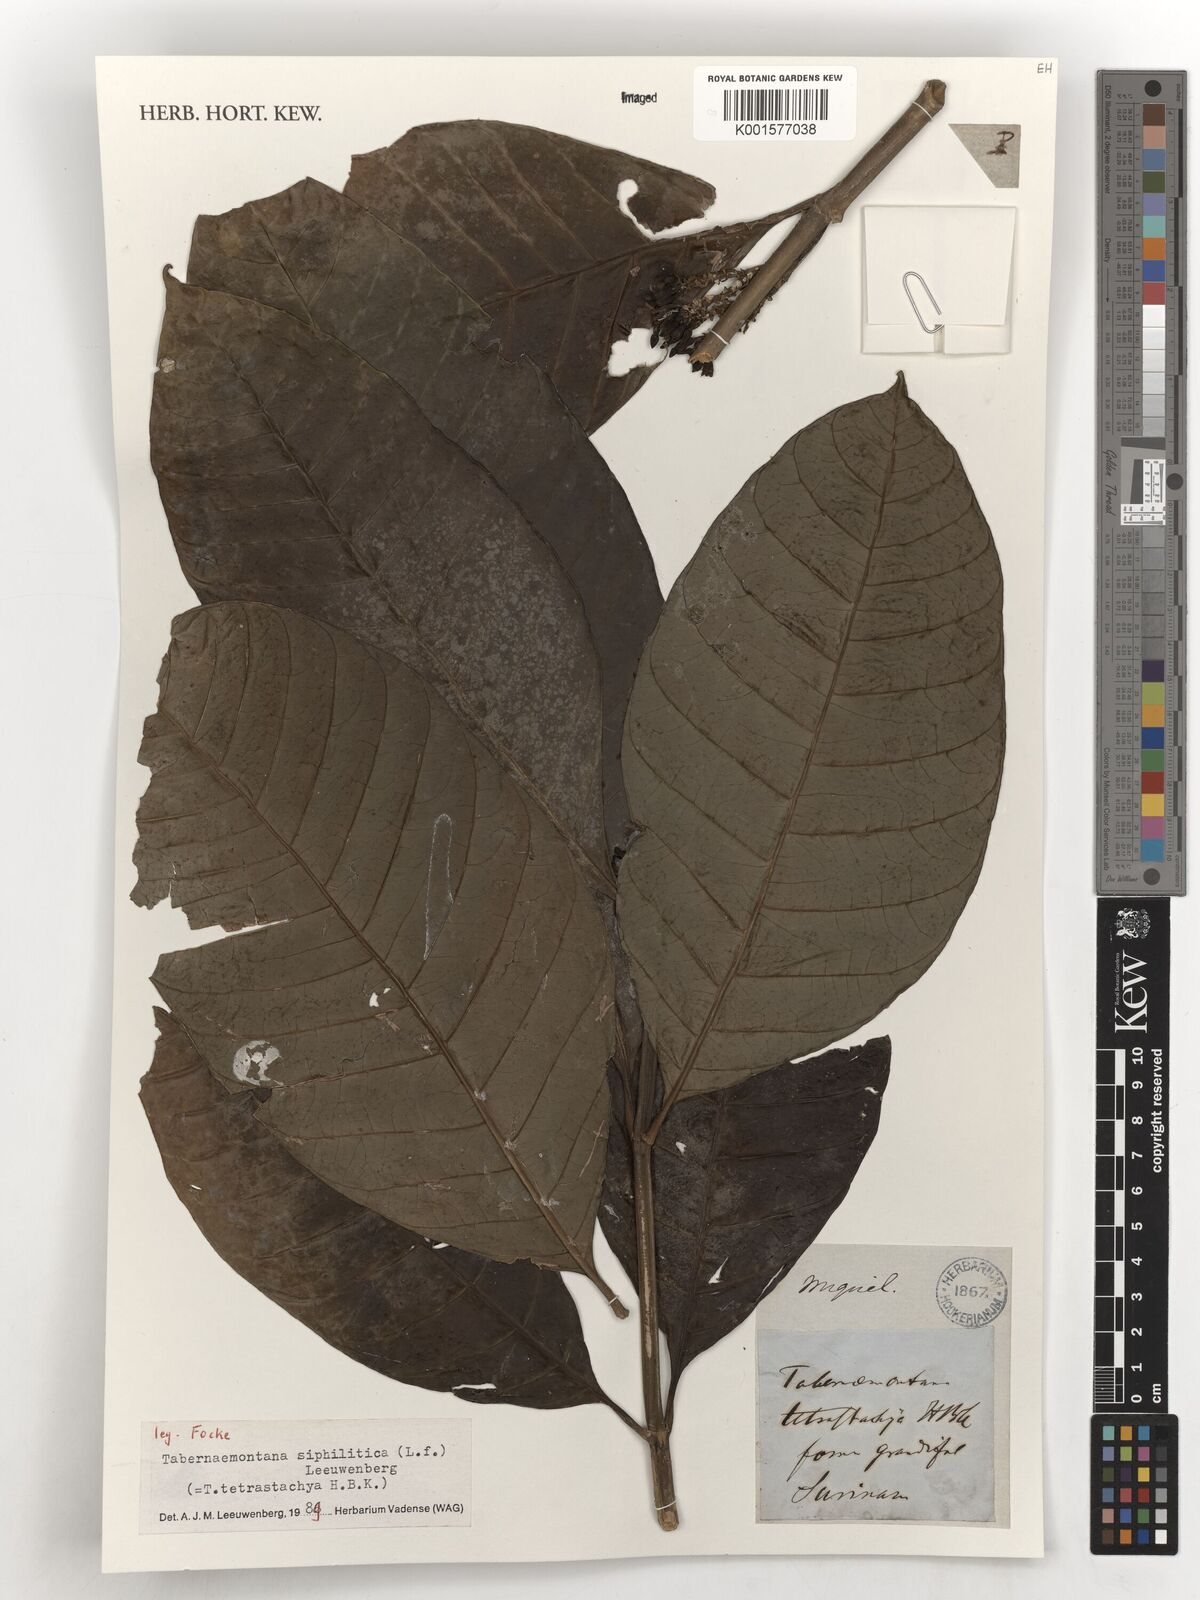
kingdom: Plantae
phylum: Tracheophyta
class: Magnoliopsida
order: Gentianales
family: Apocynaceae
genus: Tabernaemontana
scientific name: Tabernaemontana siphilitica
